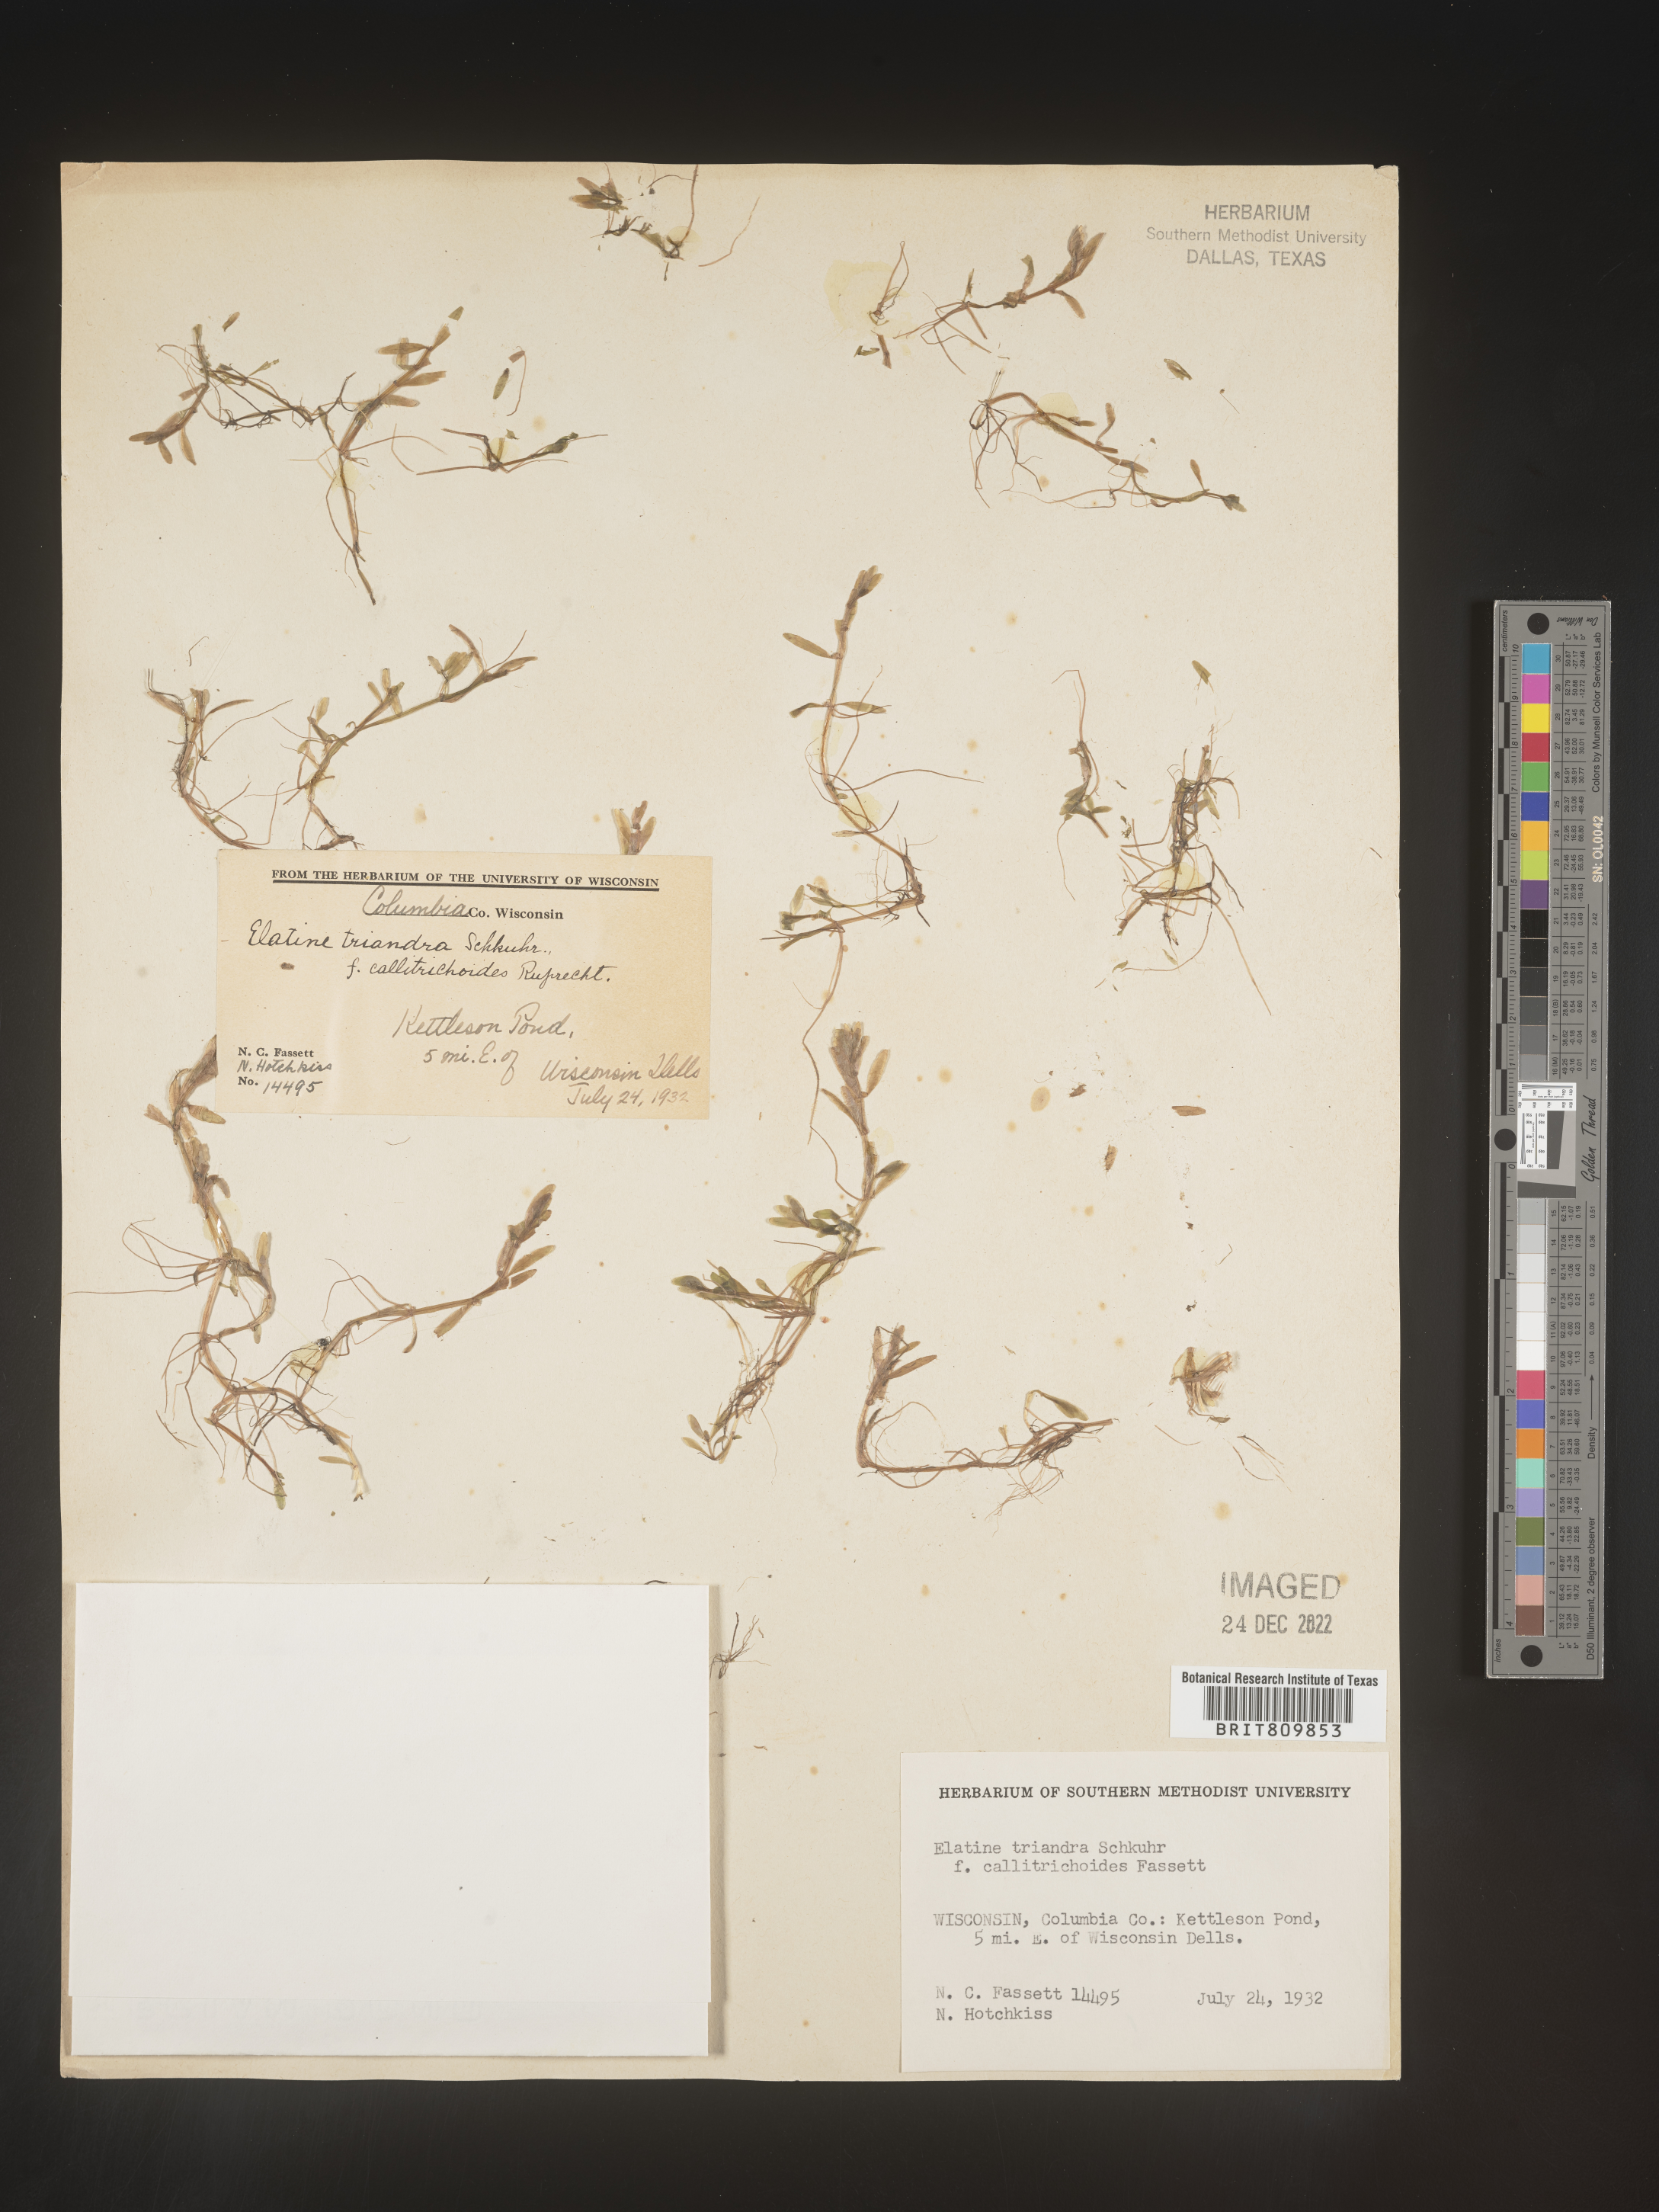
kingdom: Plantae
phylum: Tracheophyta
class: Magnoliopsida
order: Malpighiales
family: Elatinaceae
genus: Elatine
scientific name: Elatine
